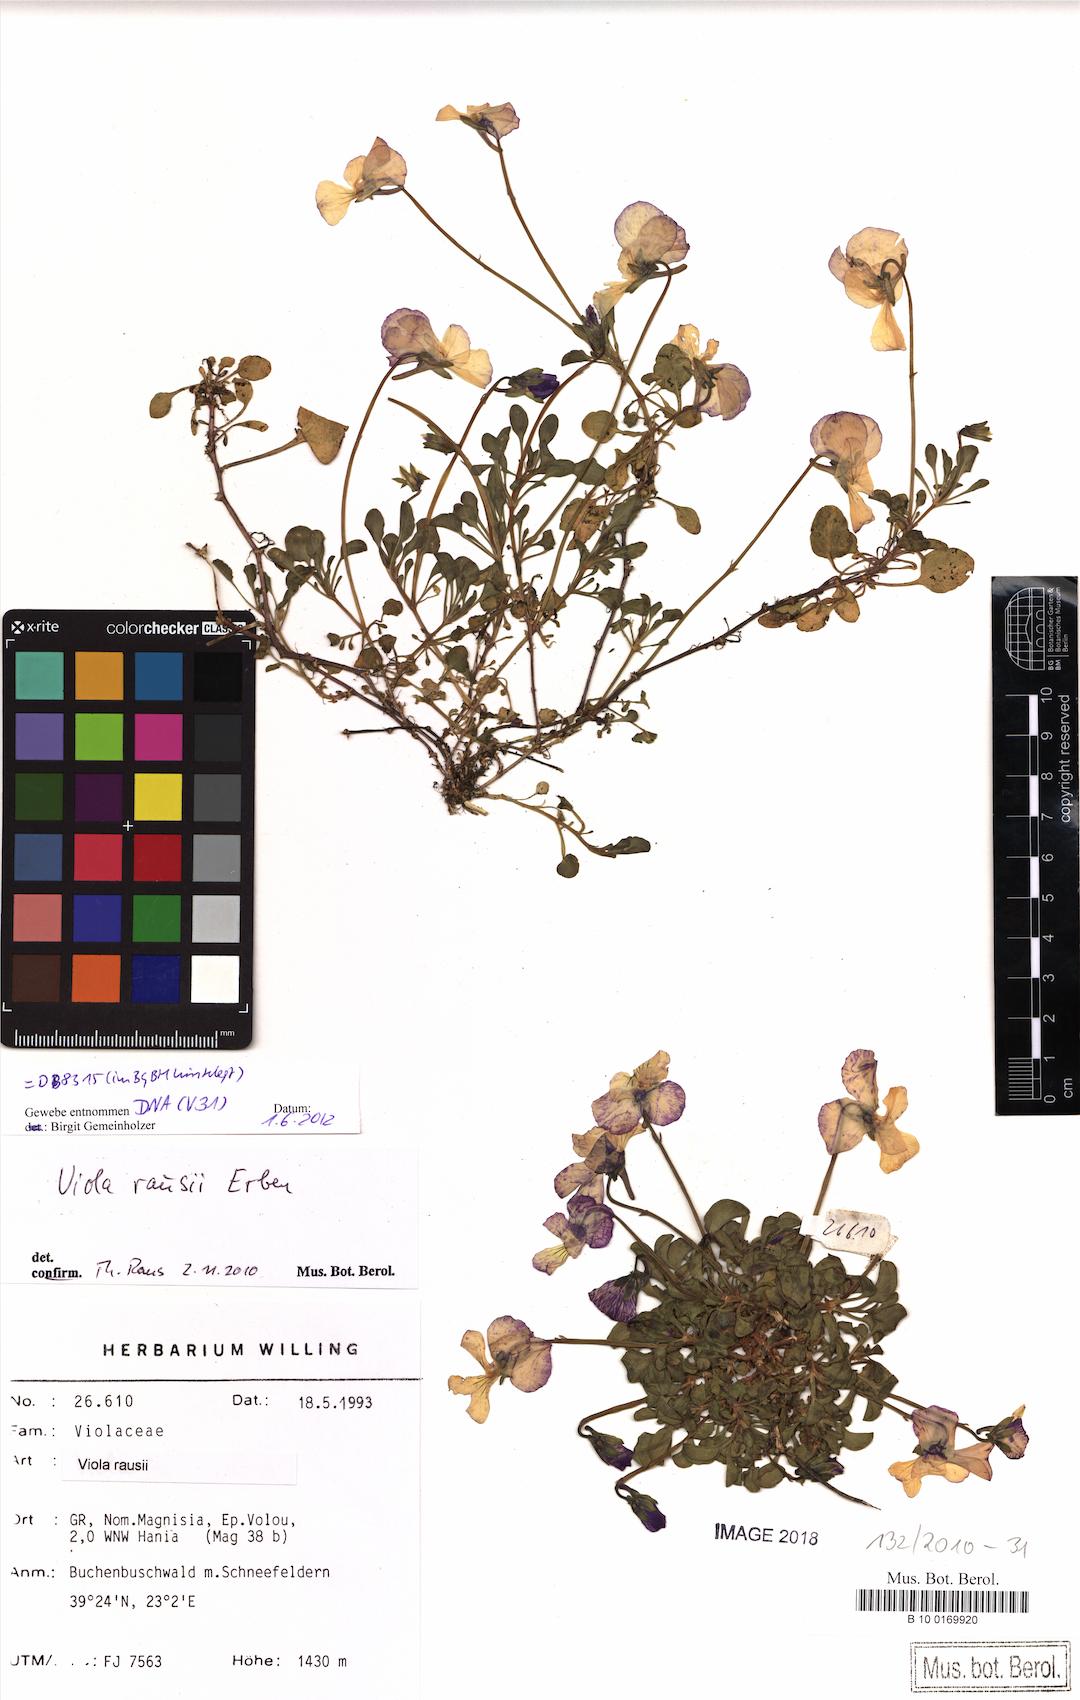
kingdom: Plantae
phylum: Tracheophyta
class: Magnoliopsida
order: Malpighiales
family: Violaceae
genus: Viola
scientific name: Viola rausii
